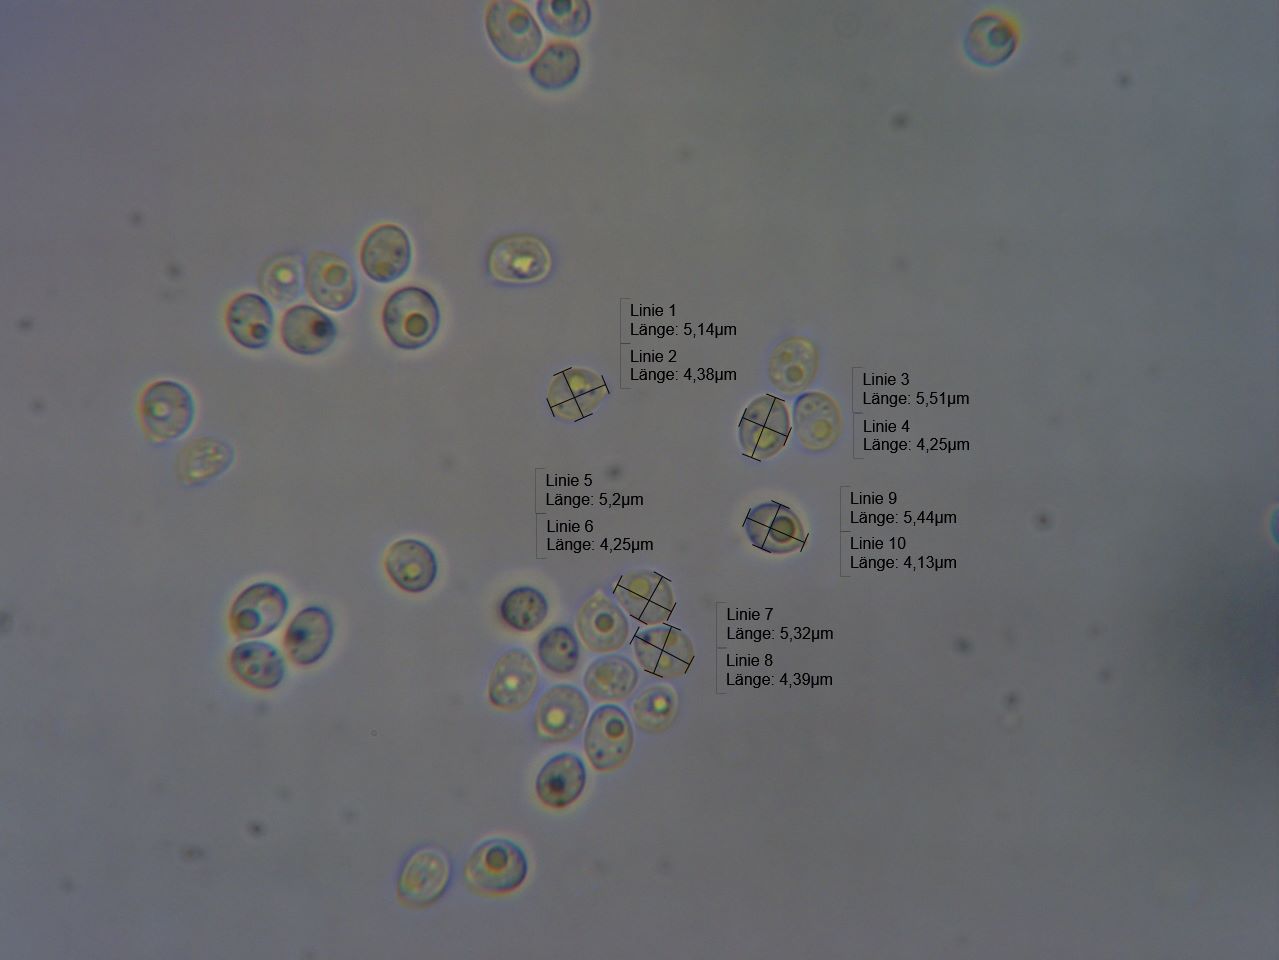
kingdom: Fungi
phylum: Basidiomycota
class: Agaricomycetes
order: Hymenochaetales
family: Hyphodontiaceae
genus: Hyphodontia
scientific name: Hyphodontia barba-jovis
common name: skægget tandsvamp
